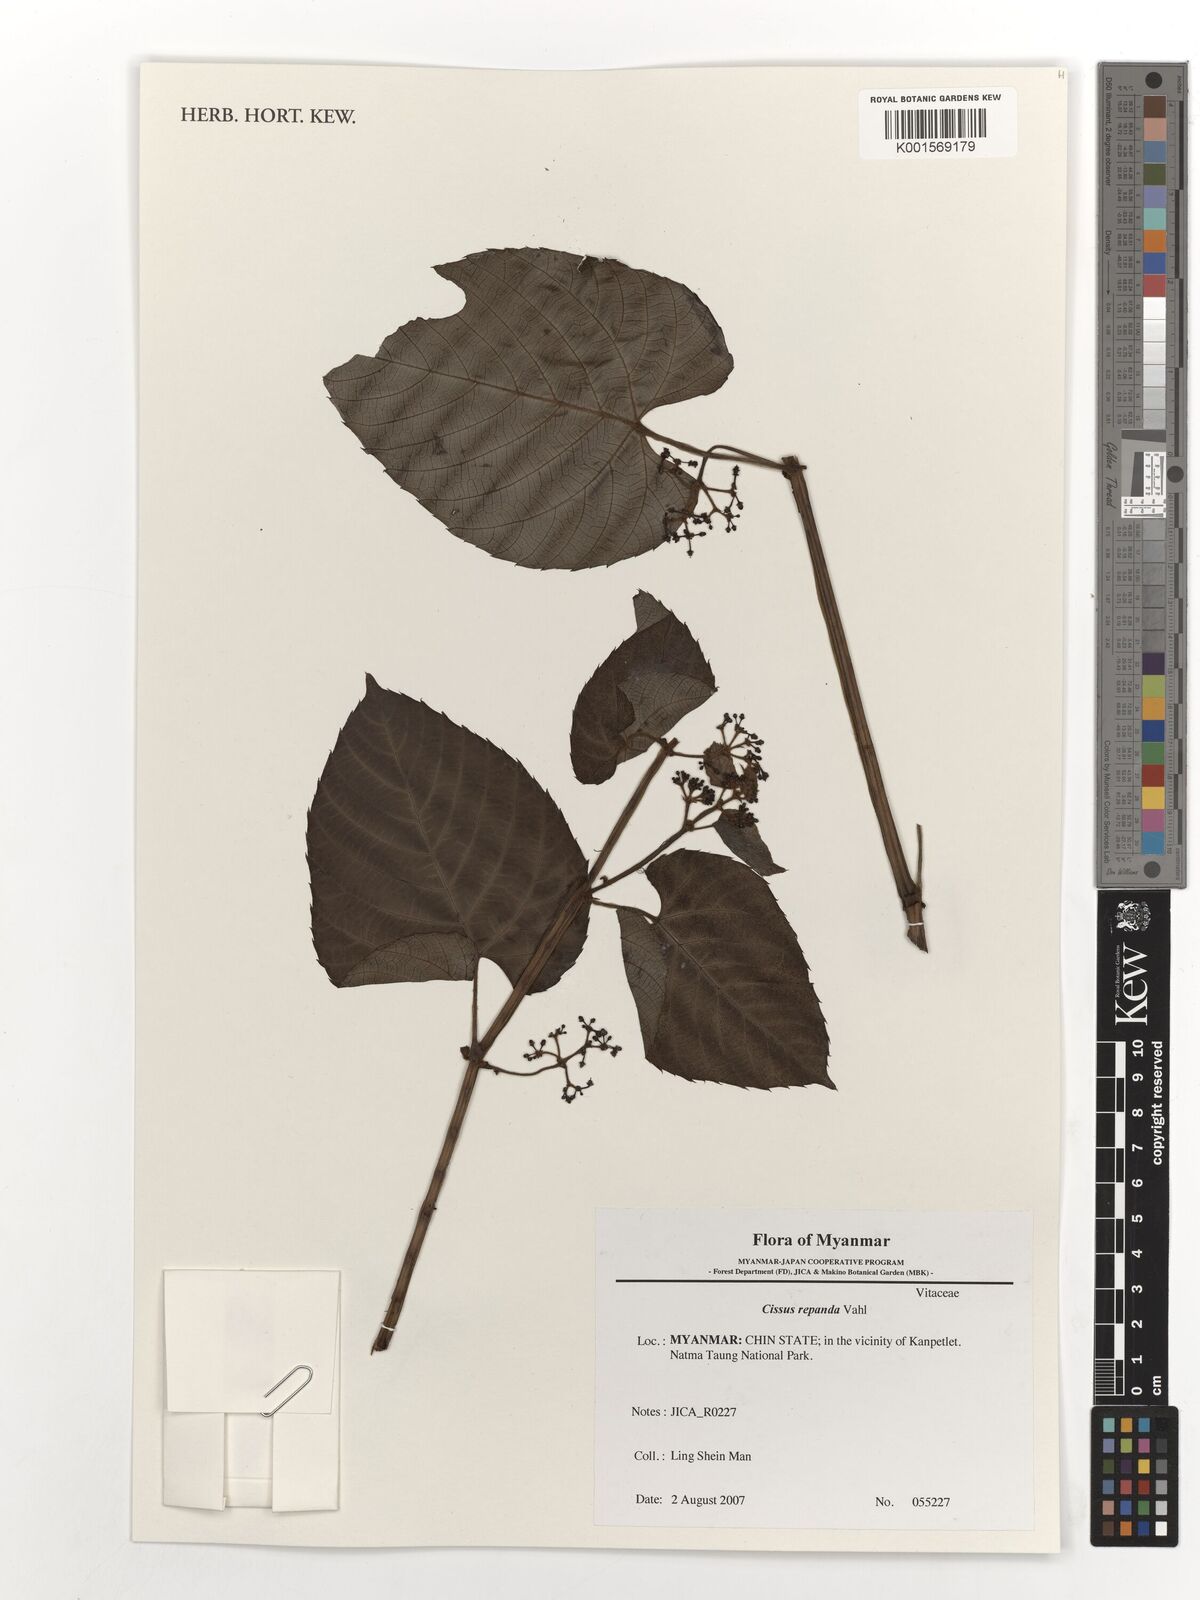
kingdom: Plantae
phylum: Tracheophyta
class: Magnoliopsida
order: Vitales
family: Vitaceae
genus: Cissus
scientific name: Cissus repanda
